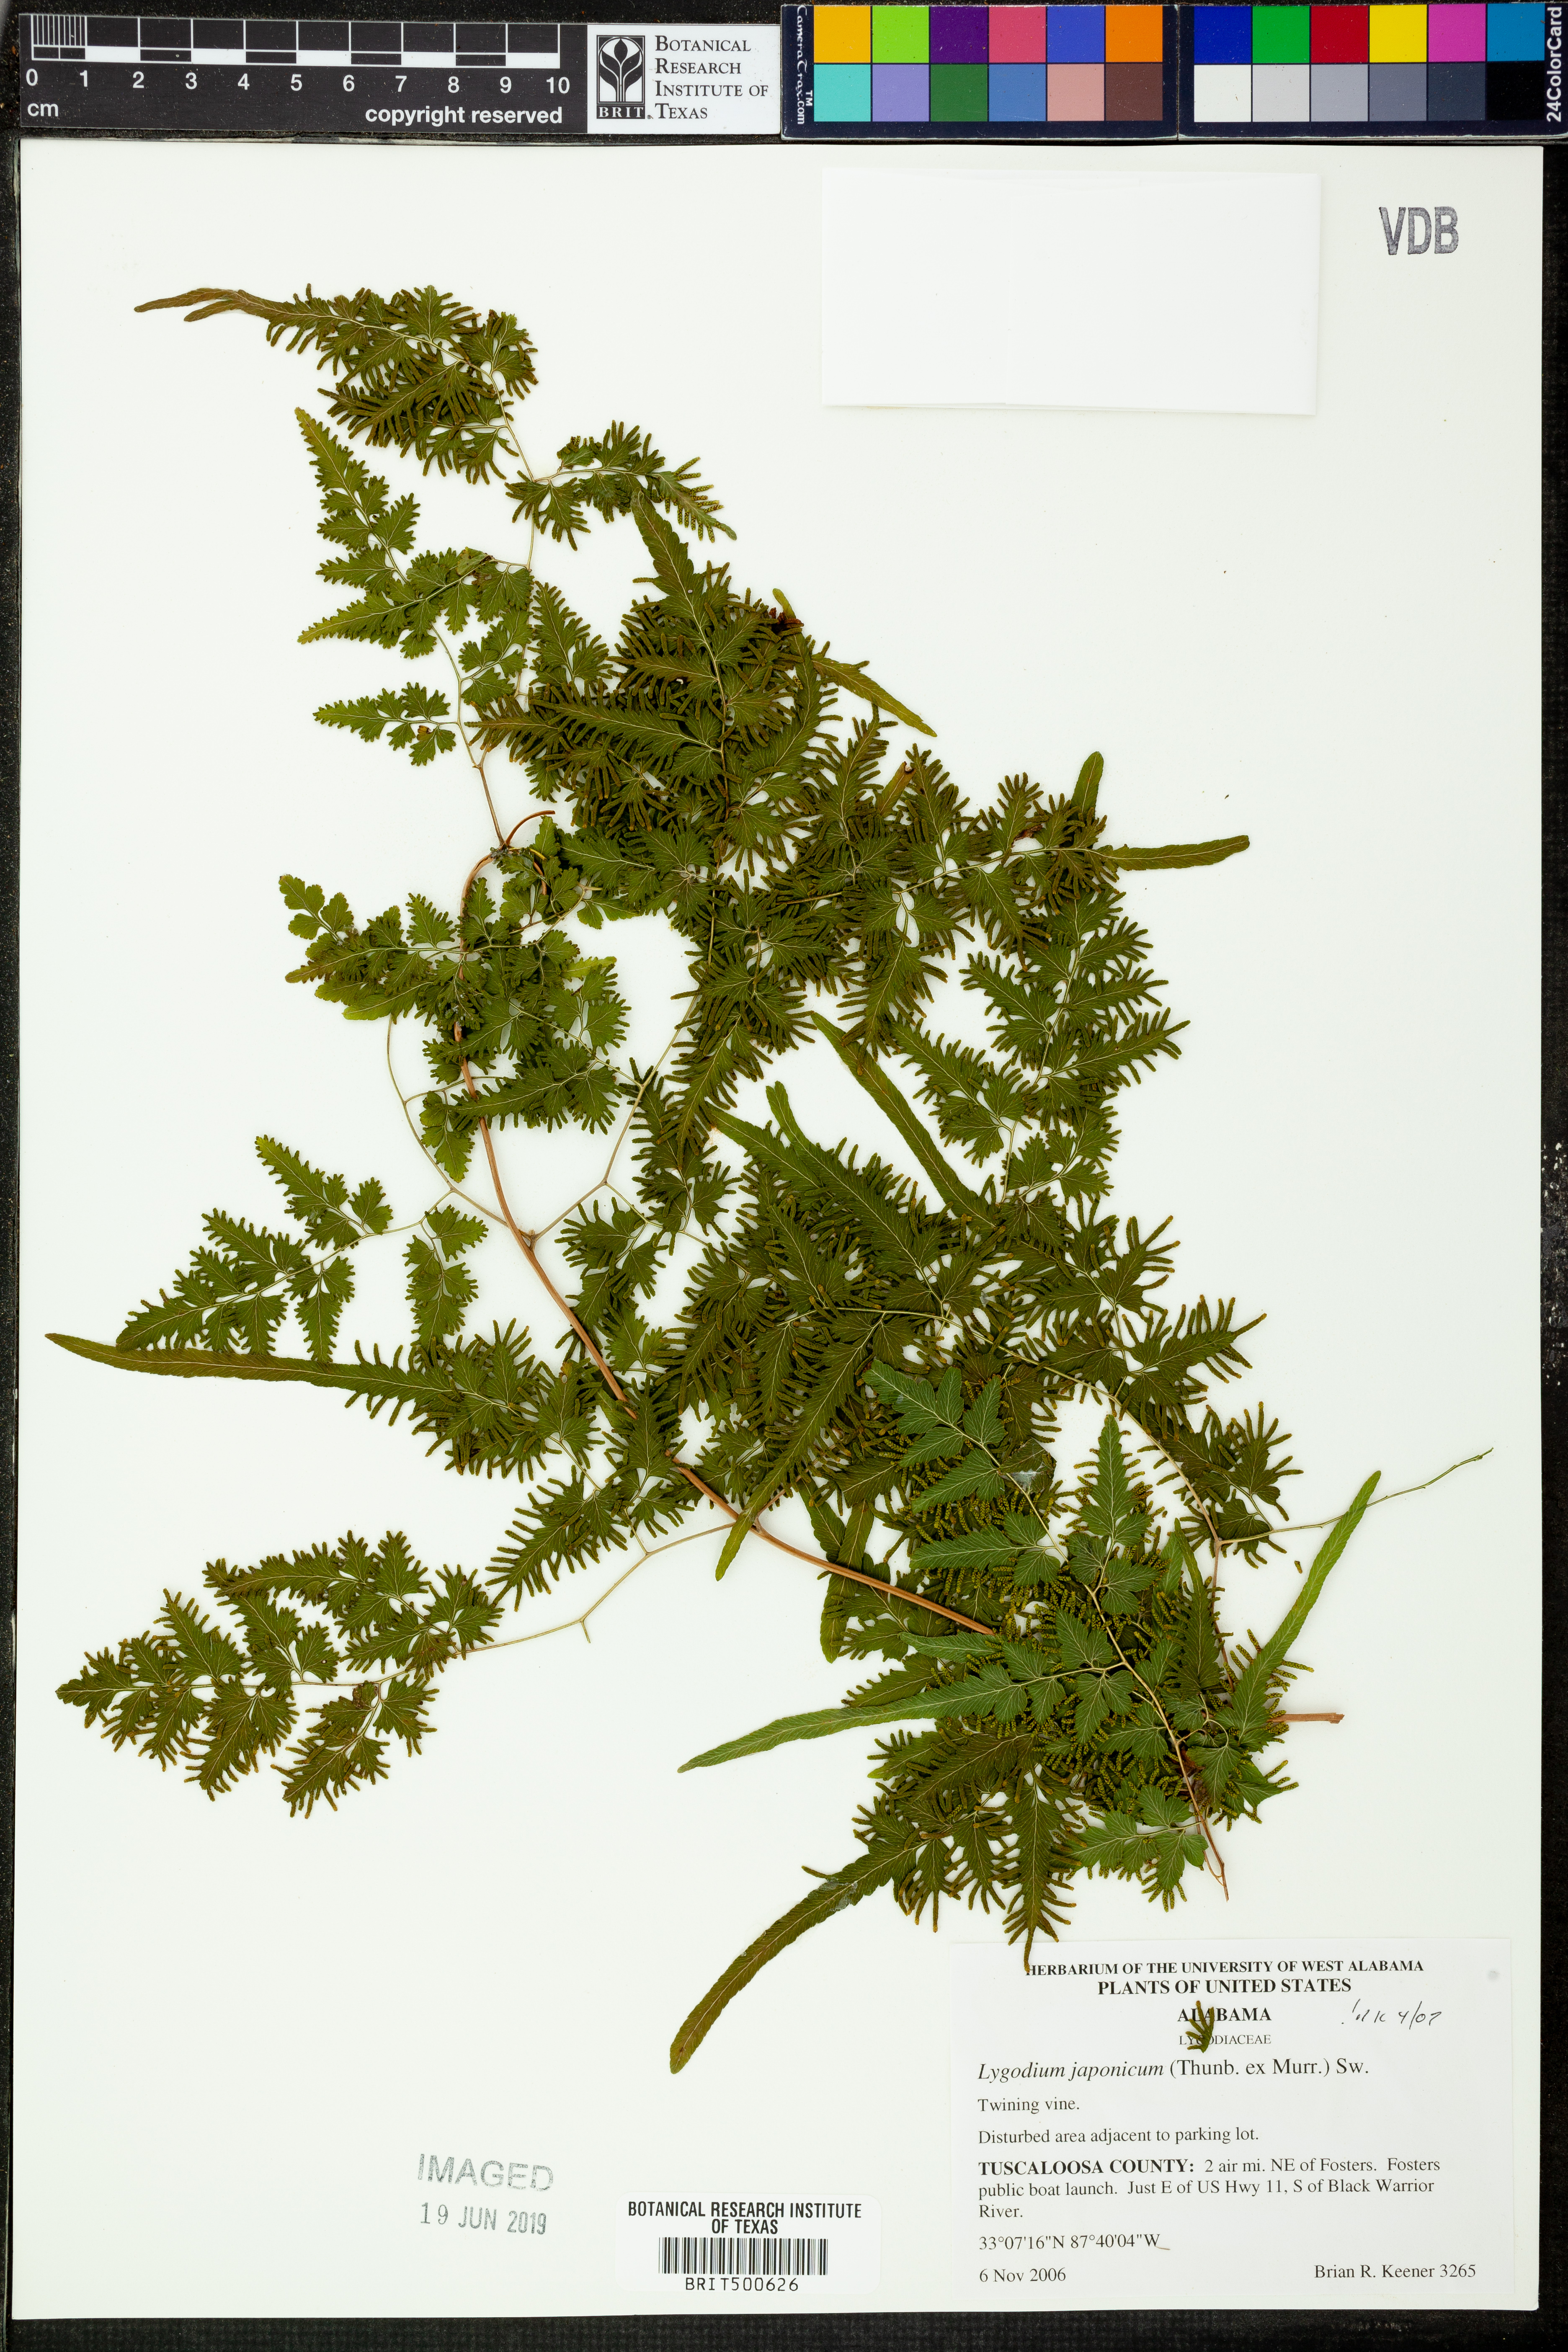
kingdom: Plantae
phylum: Tracheophyta
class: Polypodiopsida
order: Schizaeales
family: Lygodiaceae
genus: Lygodium
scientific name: Lygodium japonicum
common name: Japanese climbing fern
